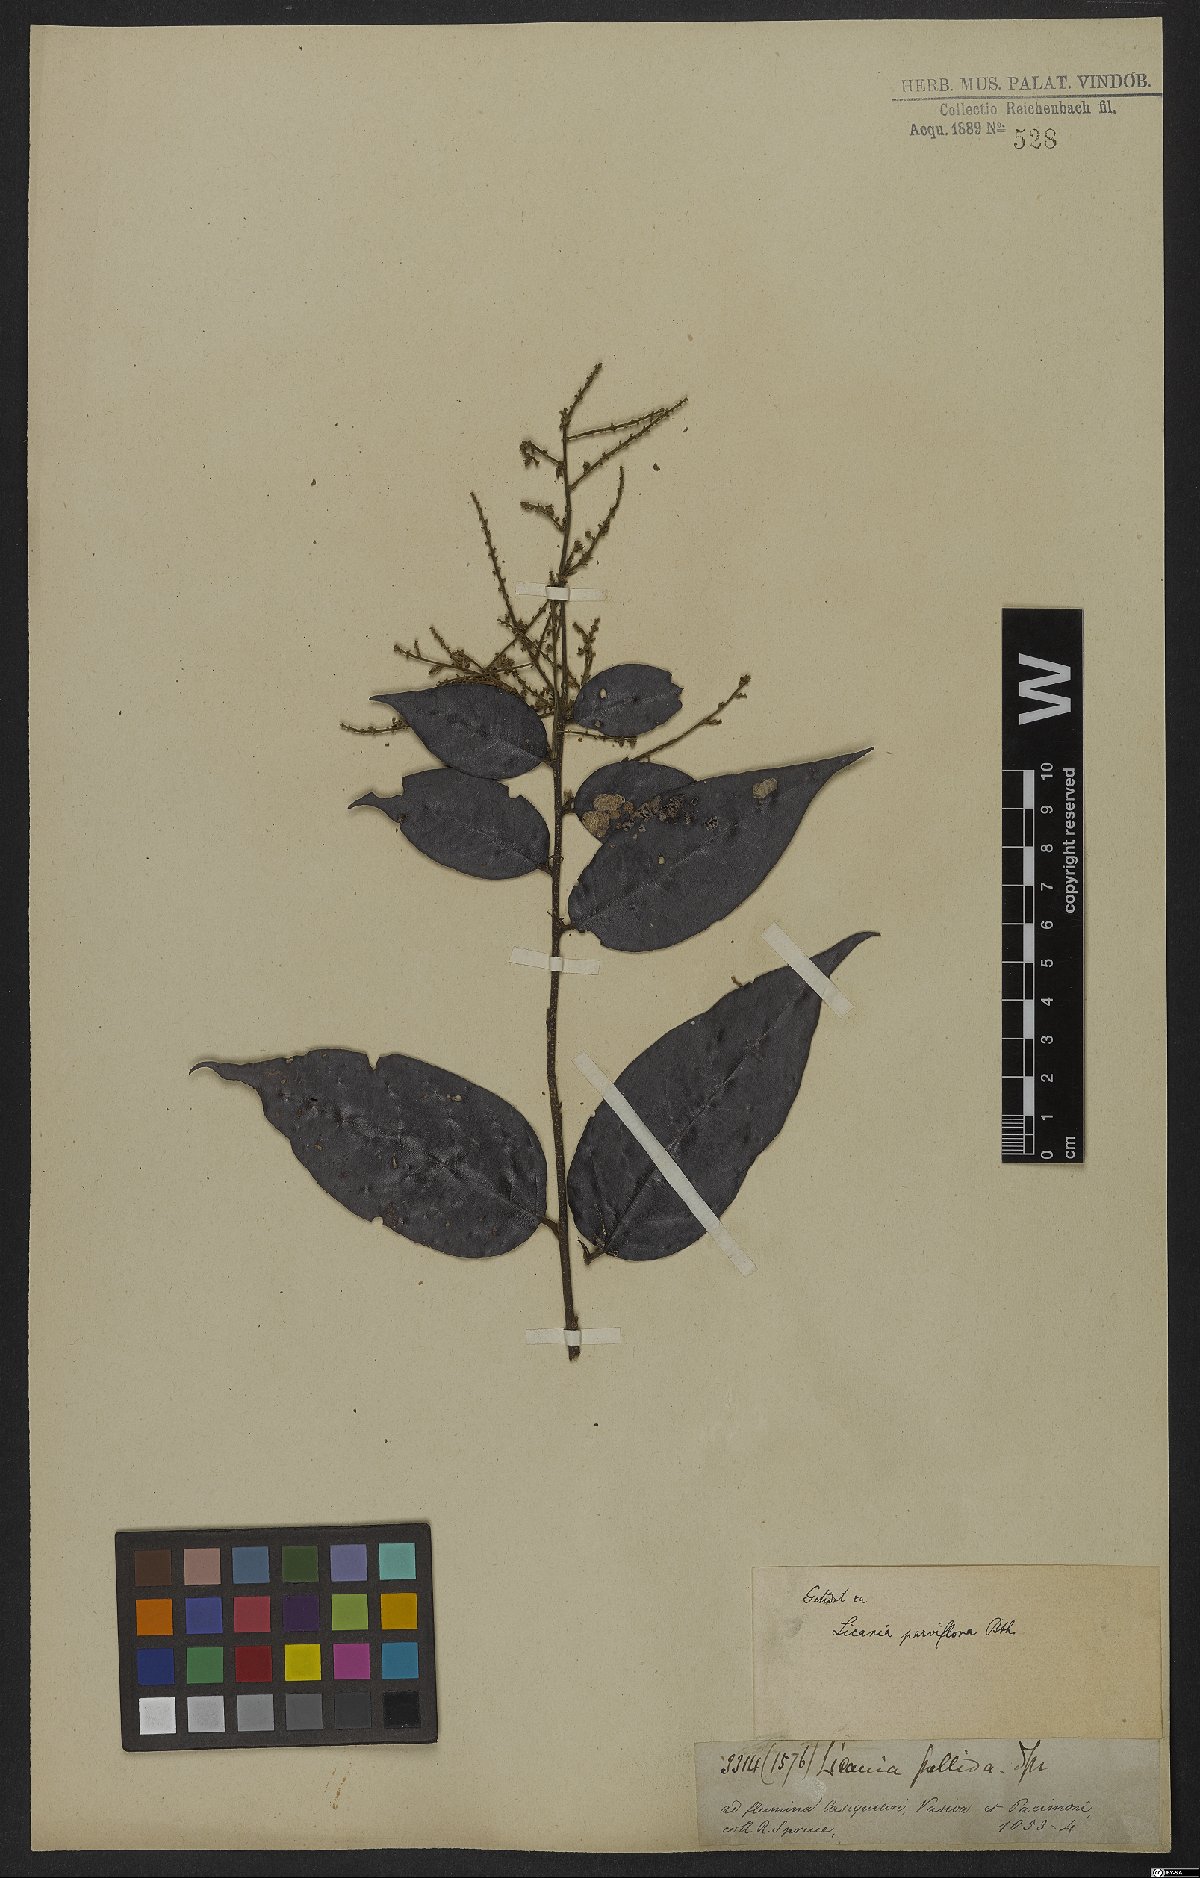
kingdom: Plantae
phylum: Tracheophyta
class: Magnoliopsida
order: Malpighiales
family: Chrysobalanaceae
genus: Leptobalanus
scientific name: Leptobalanus parviflorus
